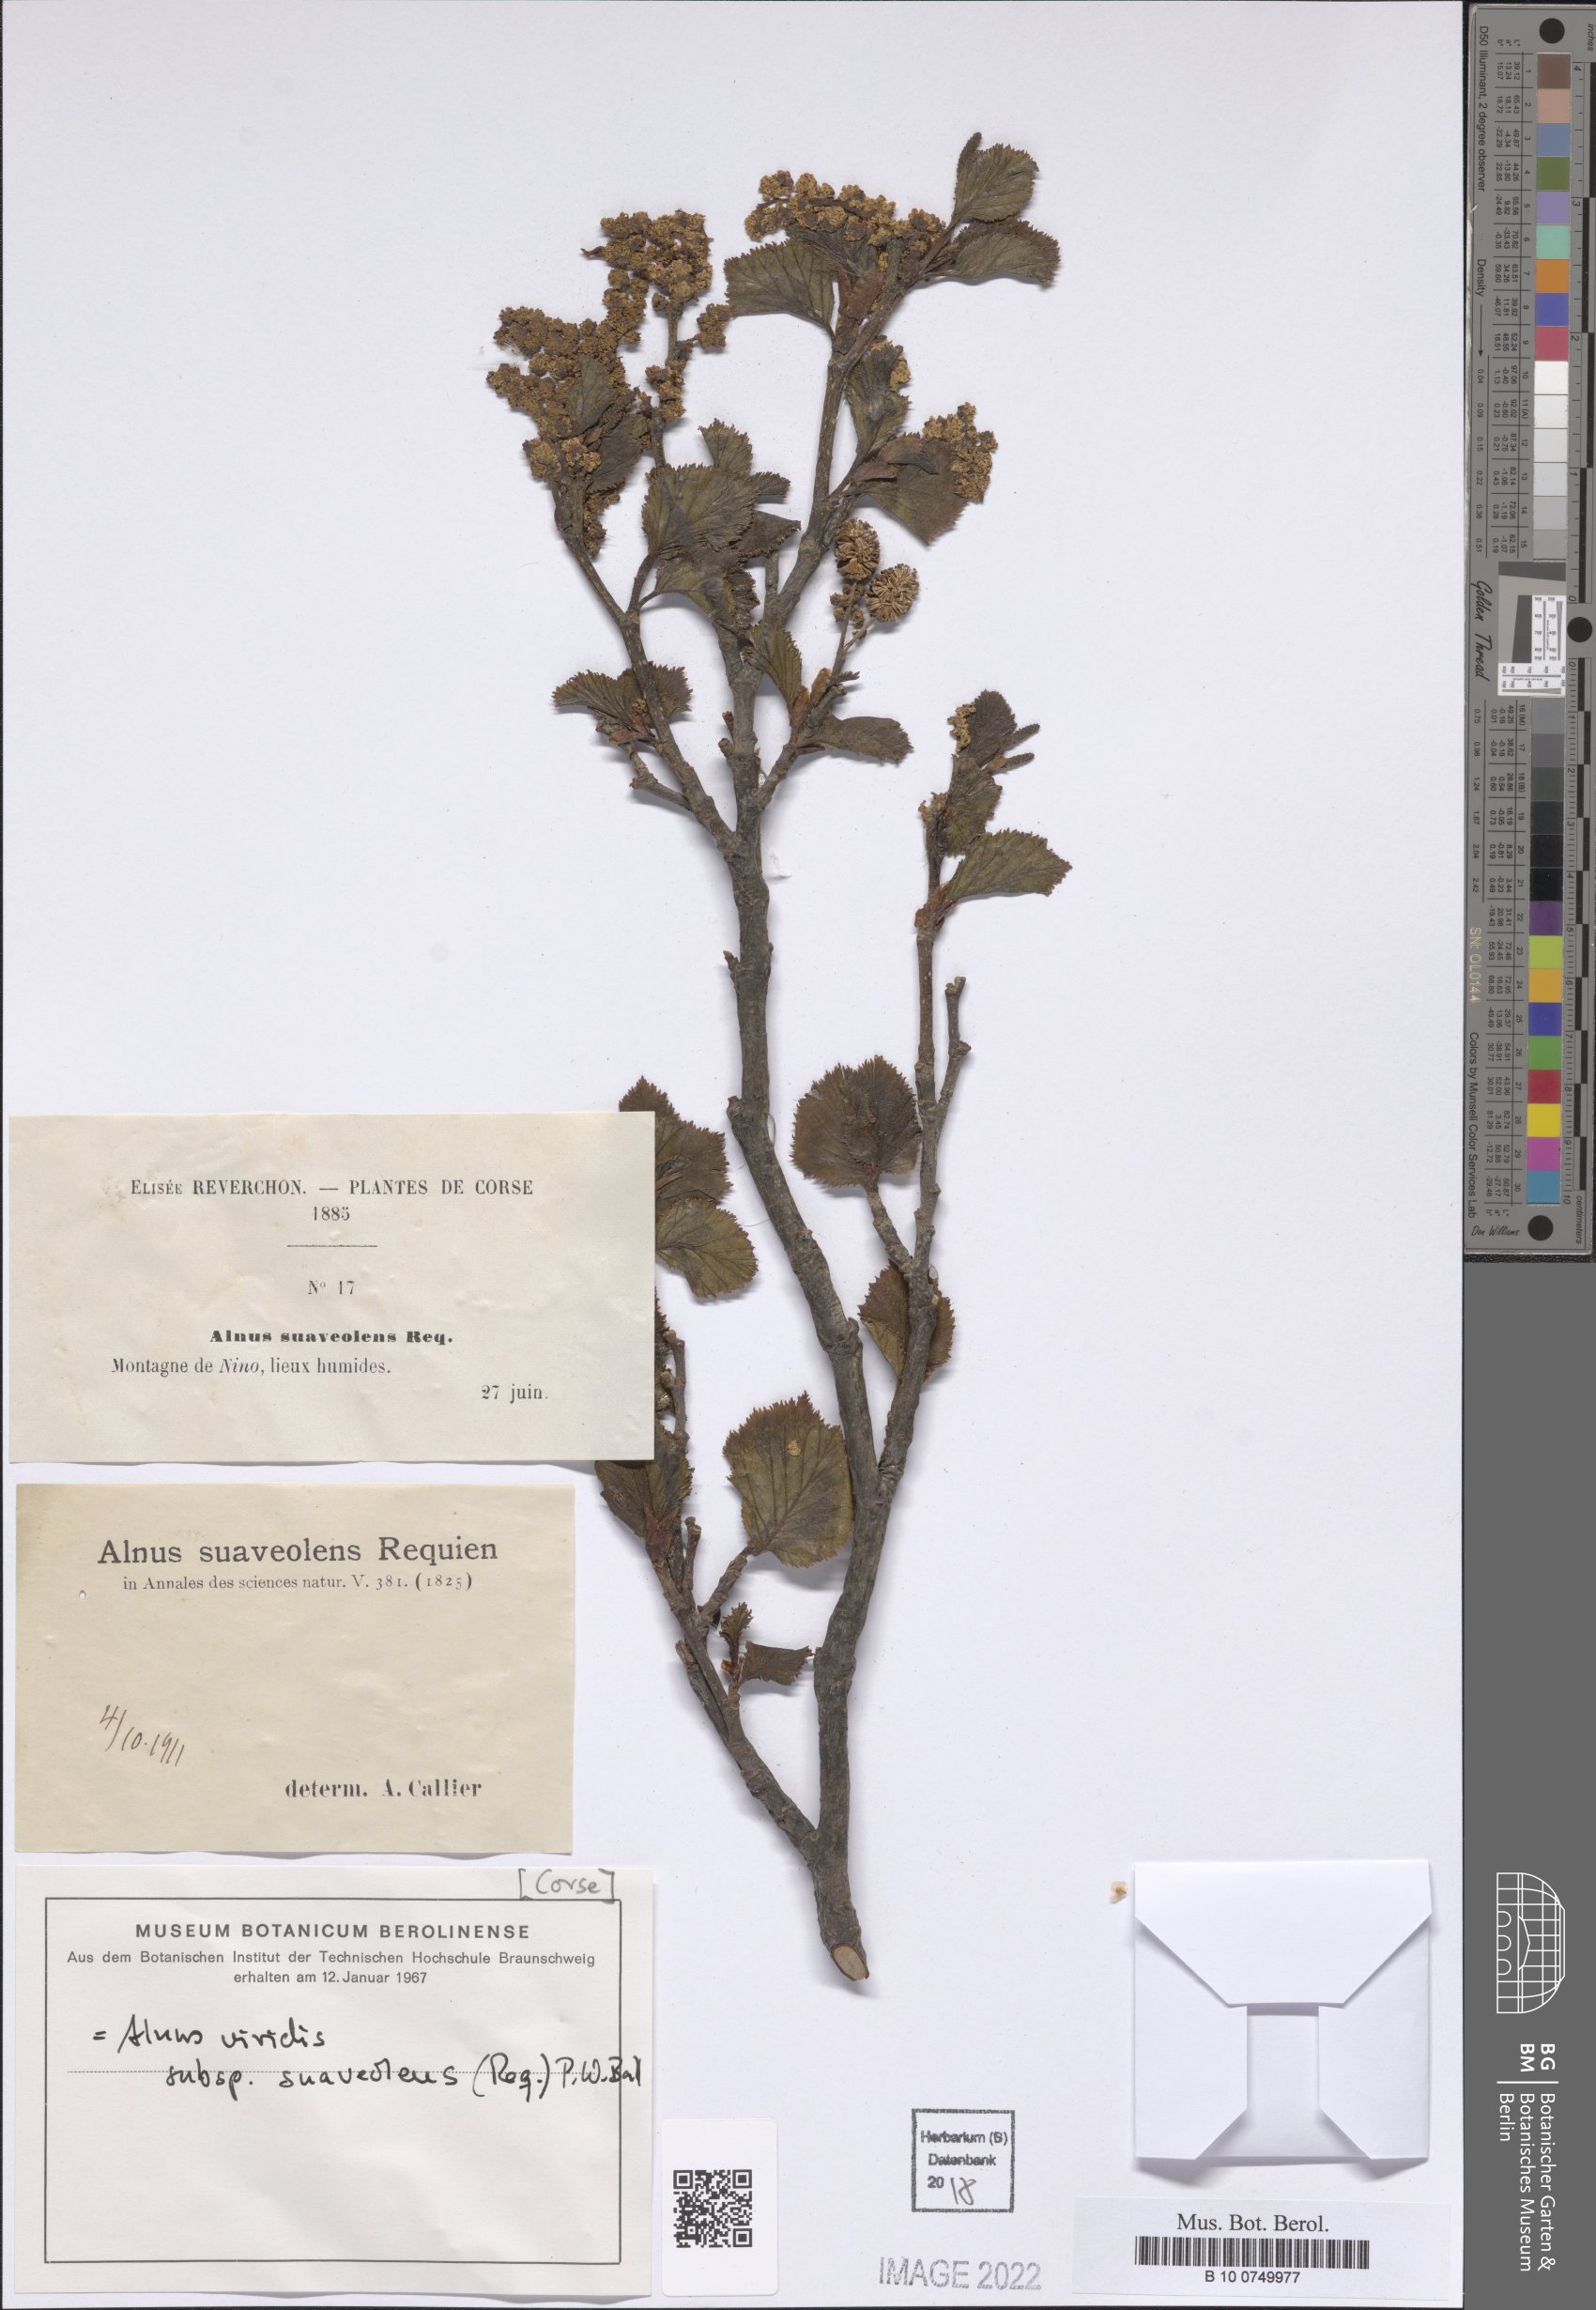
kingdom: Plantae
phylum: Tracheophyta
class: Magnoliopsida
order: Fagales
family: Betulaceae
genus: Alnus
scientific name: Alnus alnobetula
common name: Green alder
